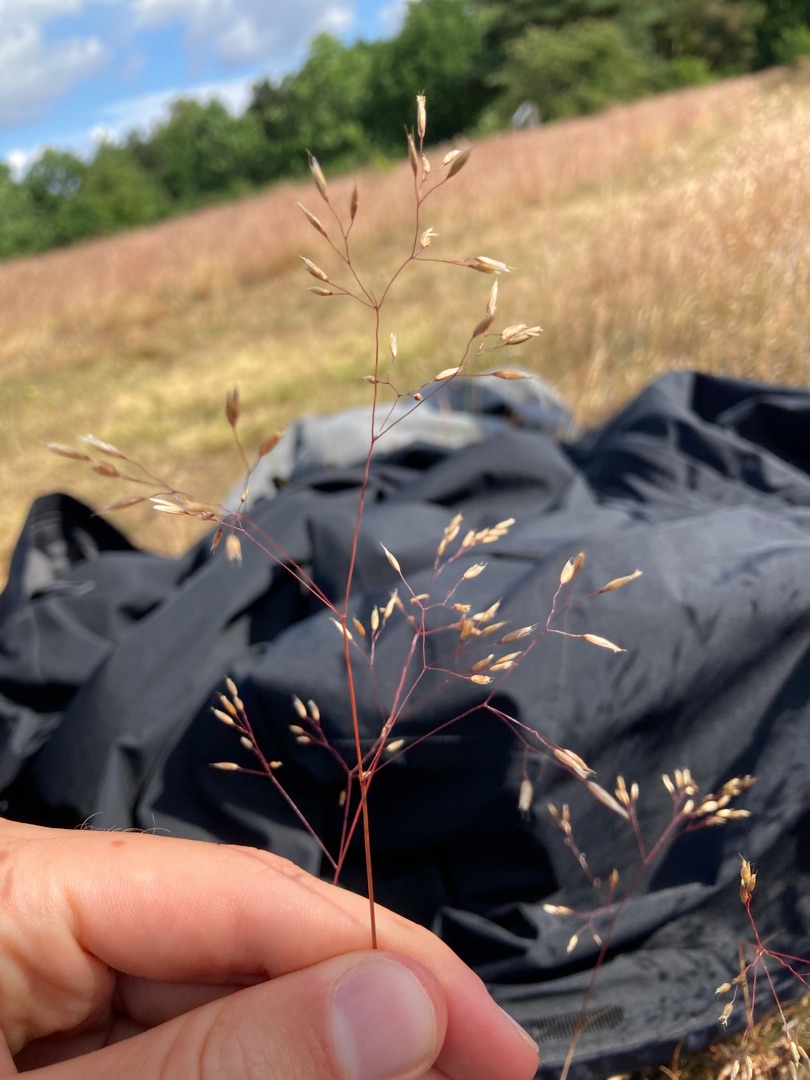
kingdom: Plantae
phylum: Tracheophyta
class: Liliopsida
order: Poales
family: Poaceae
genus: Avenella
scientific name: Avenella flexuosa
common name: Bølget bunke
